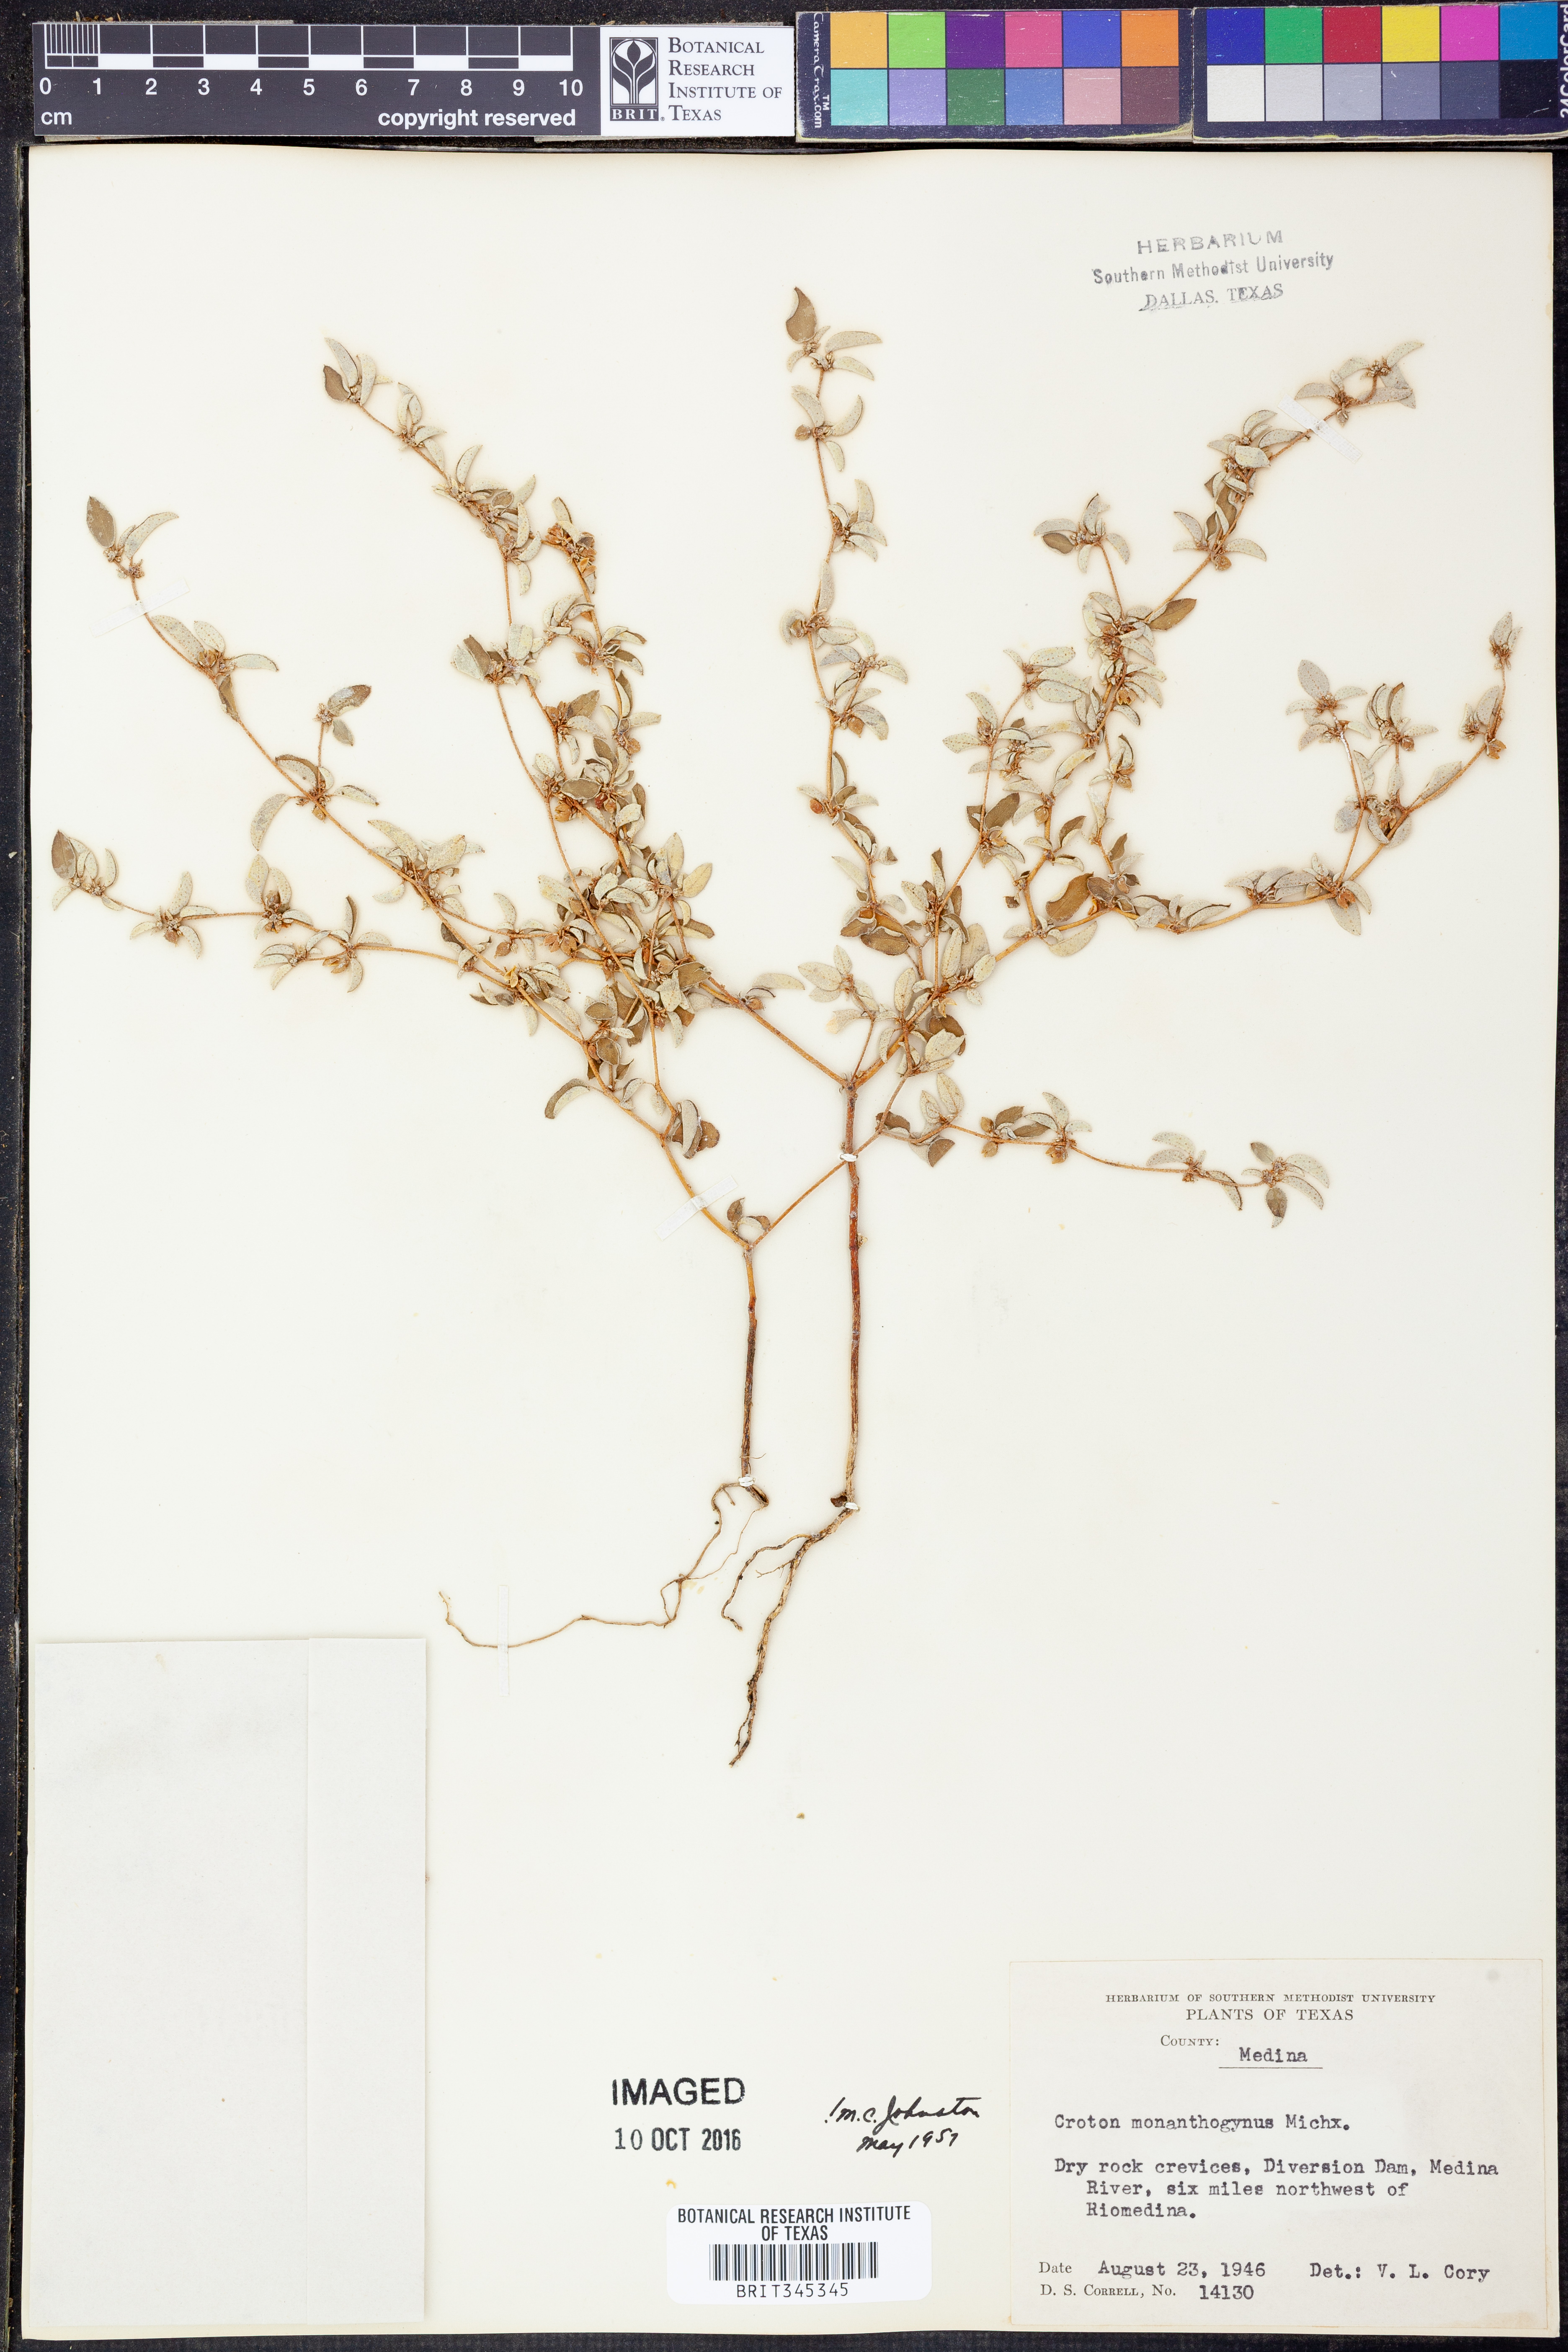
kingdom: Plantae
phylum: Tracheophyta
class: Magnoliopsida
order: Malpighiales
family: Euphorbiaceae
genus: Croton
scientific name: Croton monanthogynus
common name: One-seed croton
